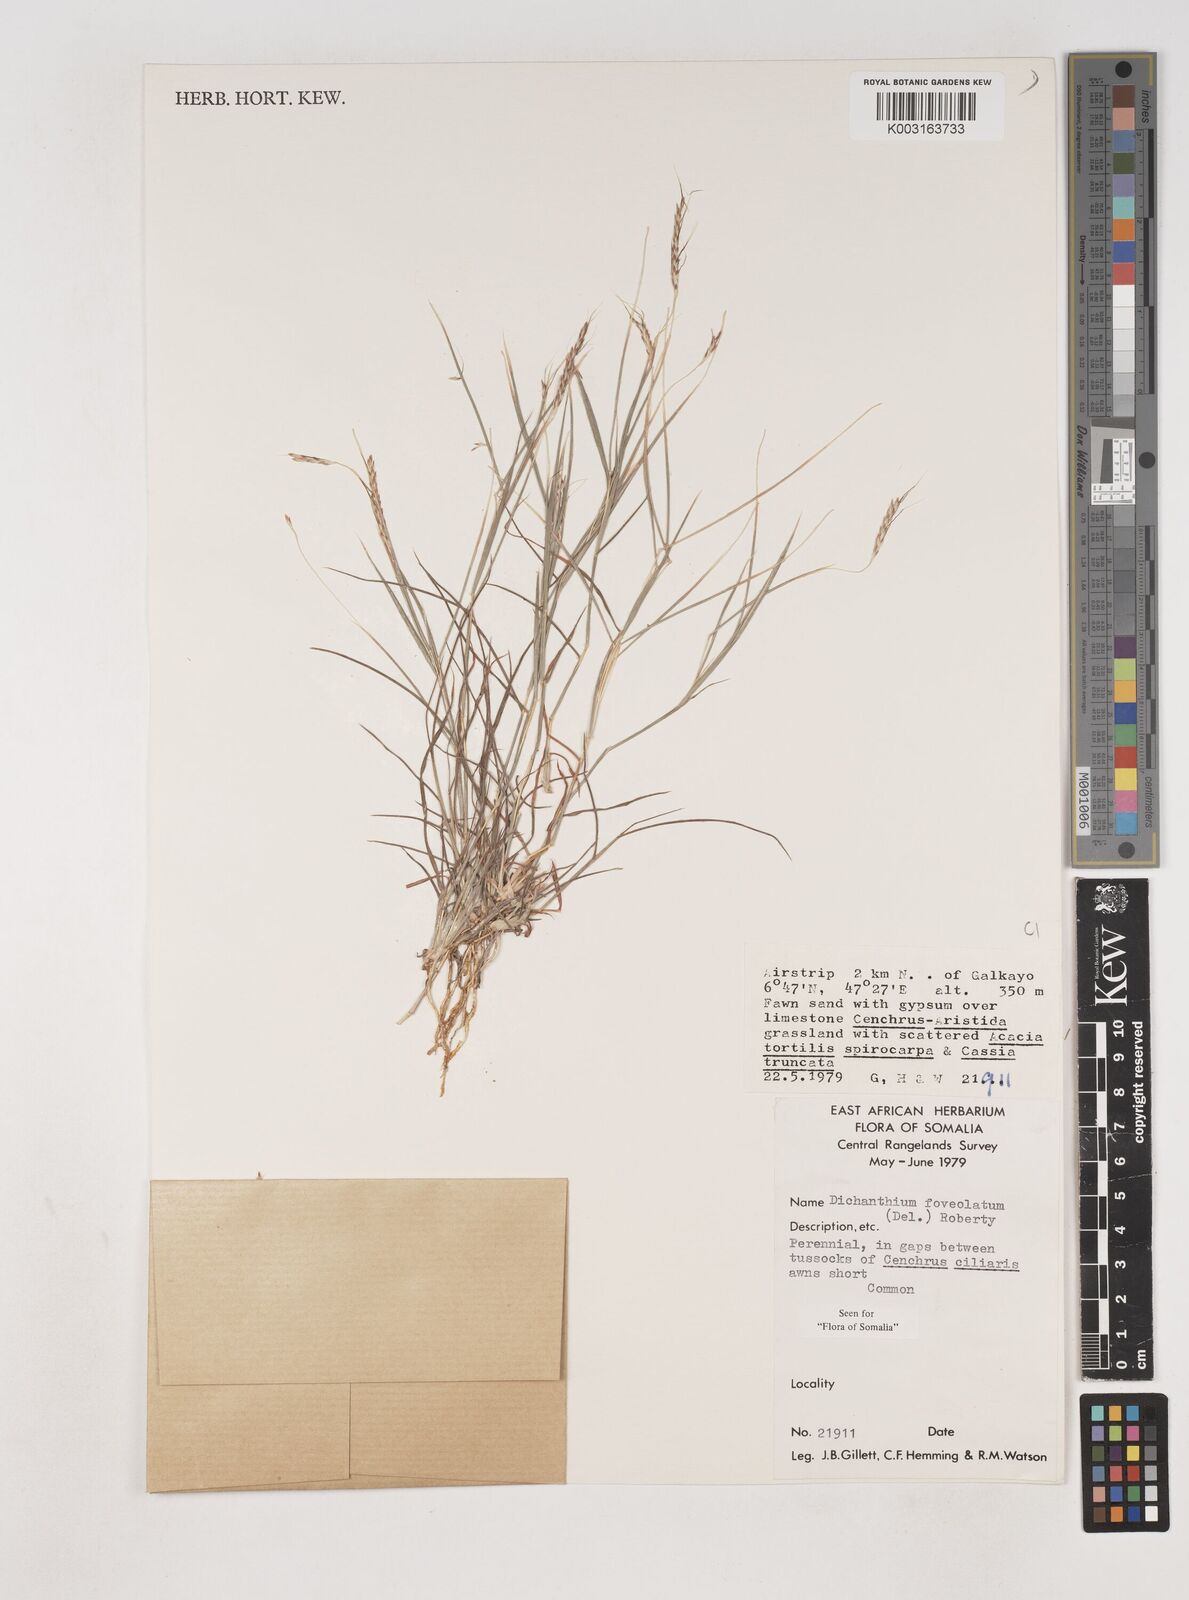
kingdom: Plantae
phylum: Tracheophyta
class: Liliopsida
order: Poales
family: Poaceae
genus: Dichanthium
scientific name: Dichanthium foveolatum
